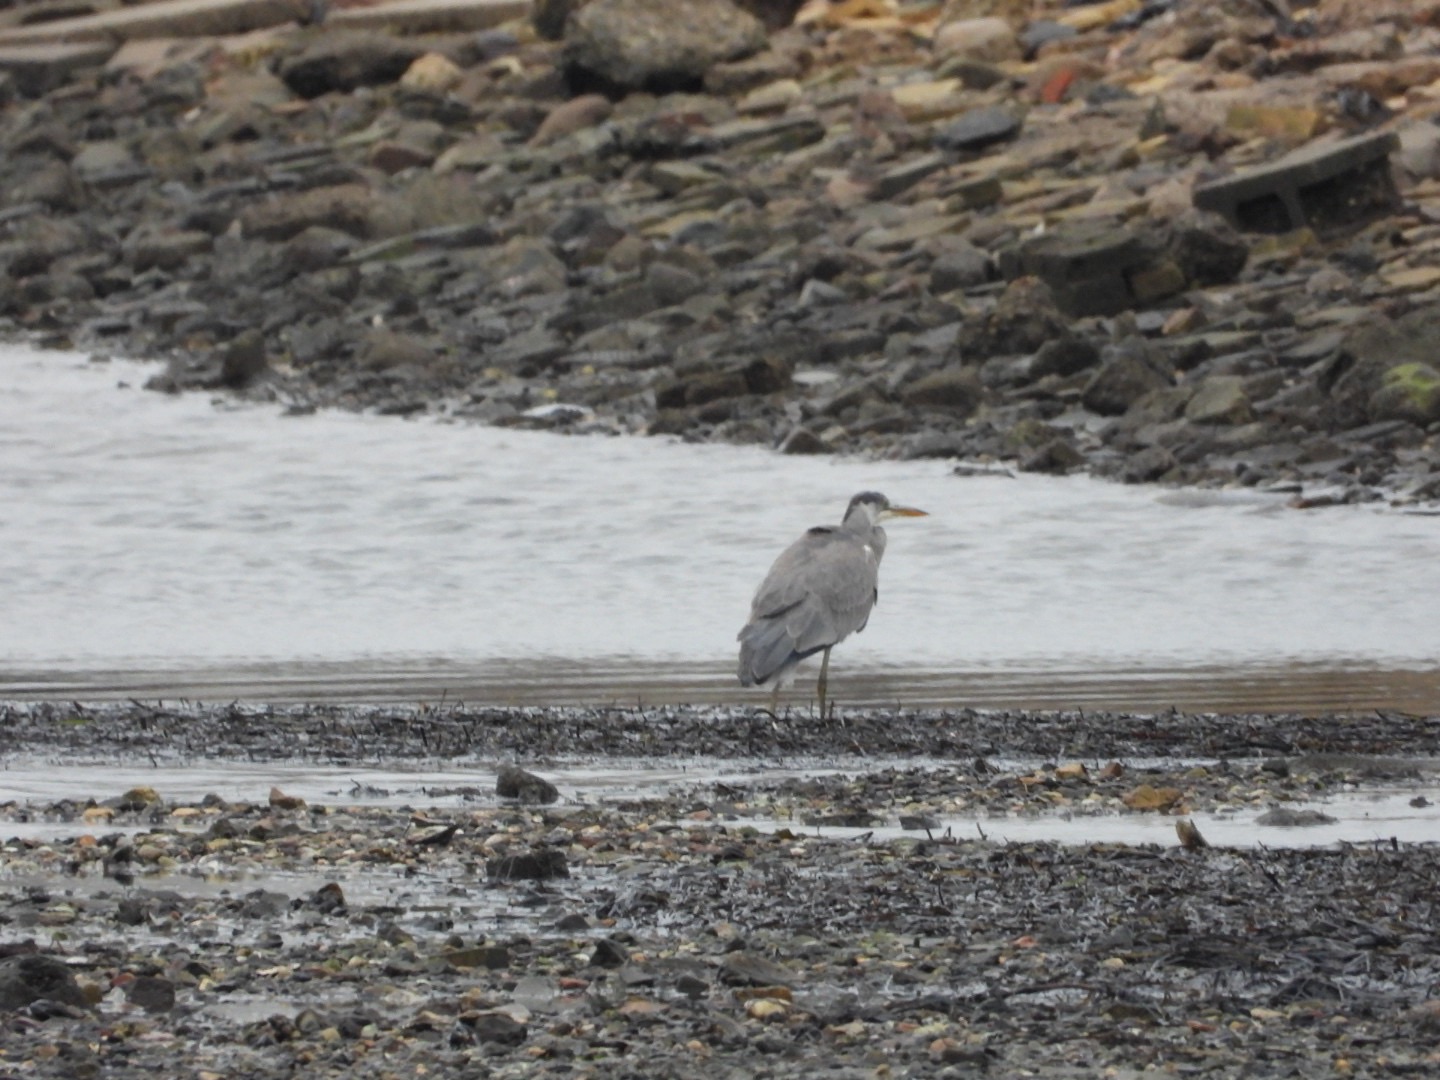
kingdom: Animalia
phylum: Chordata
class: Aves
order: Pelecaniformes
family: Ardeidae
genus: Ardea
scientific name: Ardea cinerea
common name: Fiskehejre
